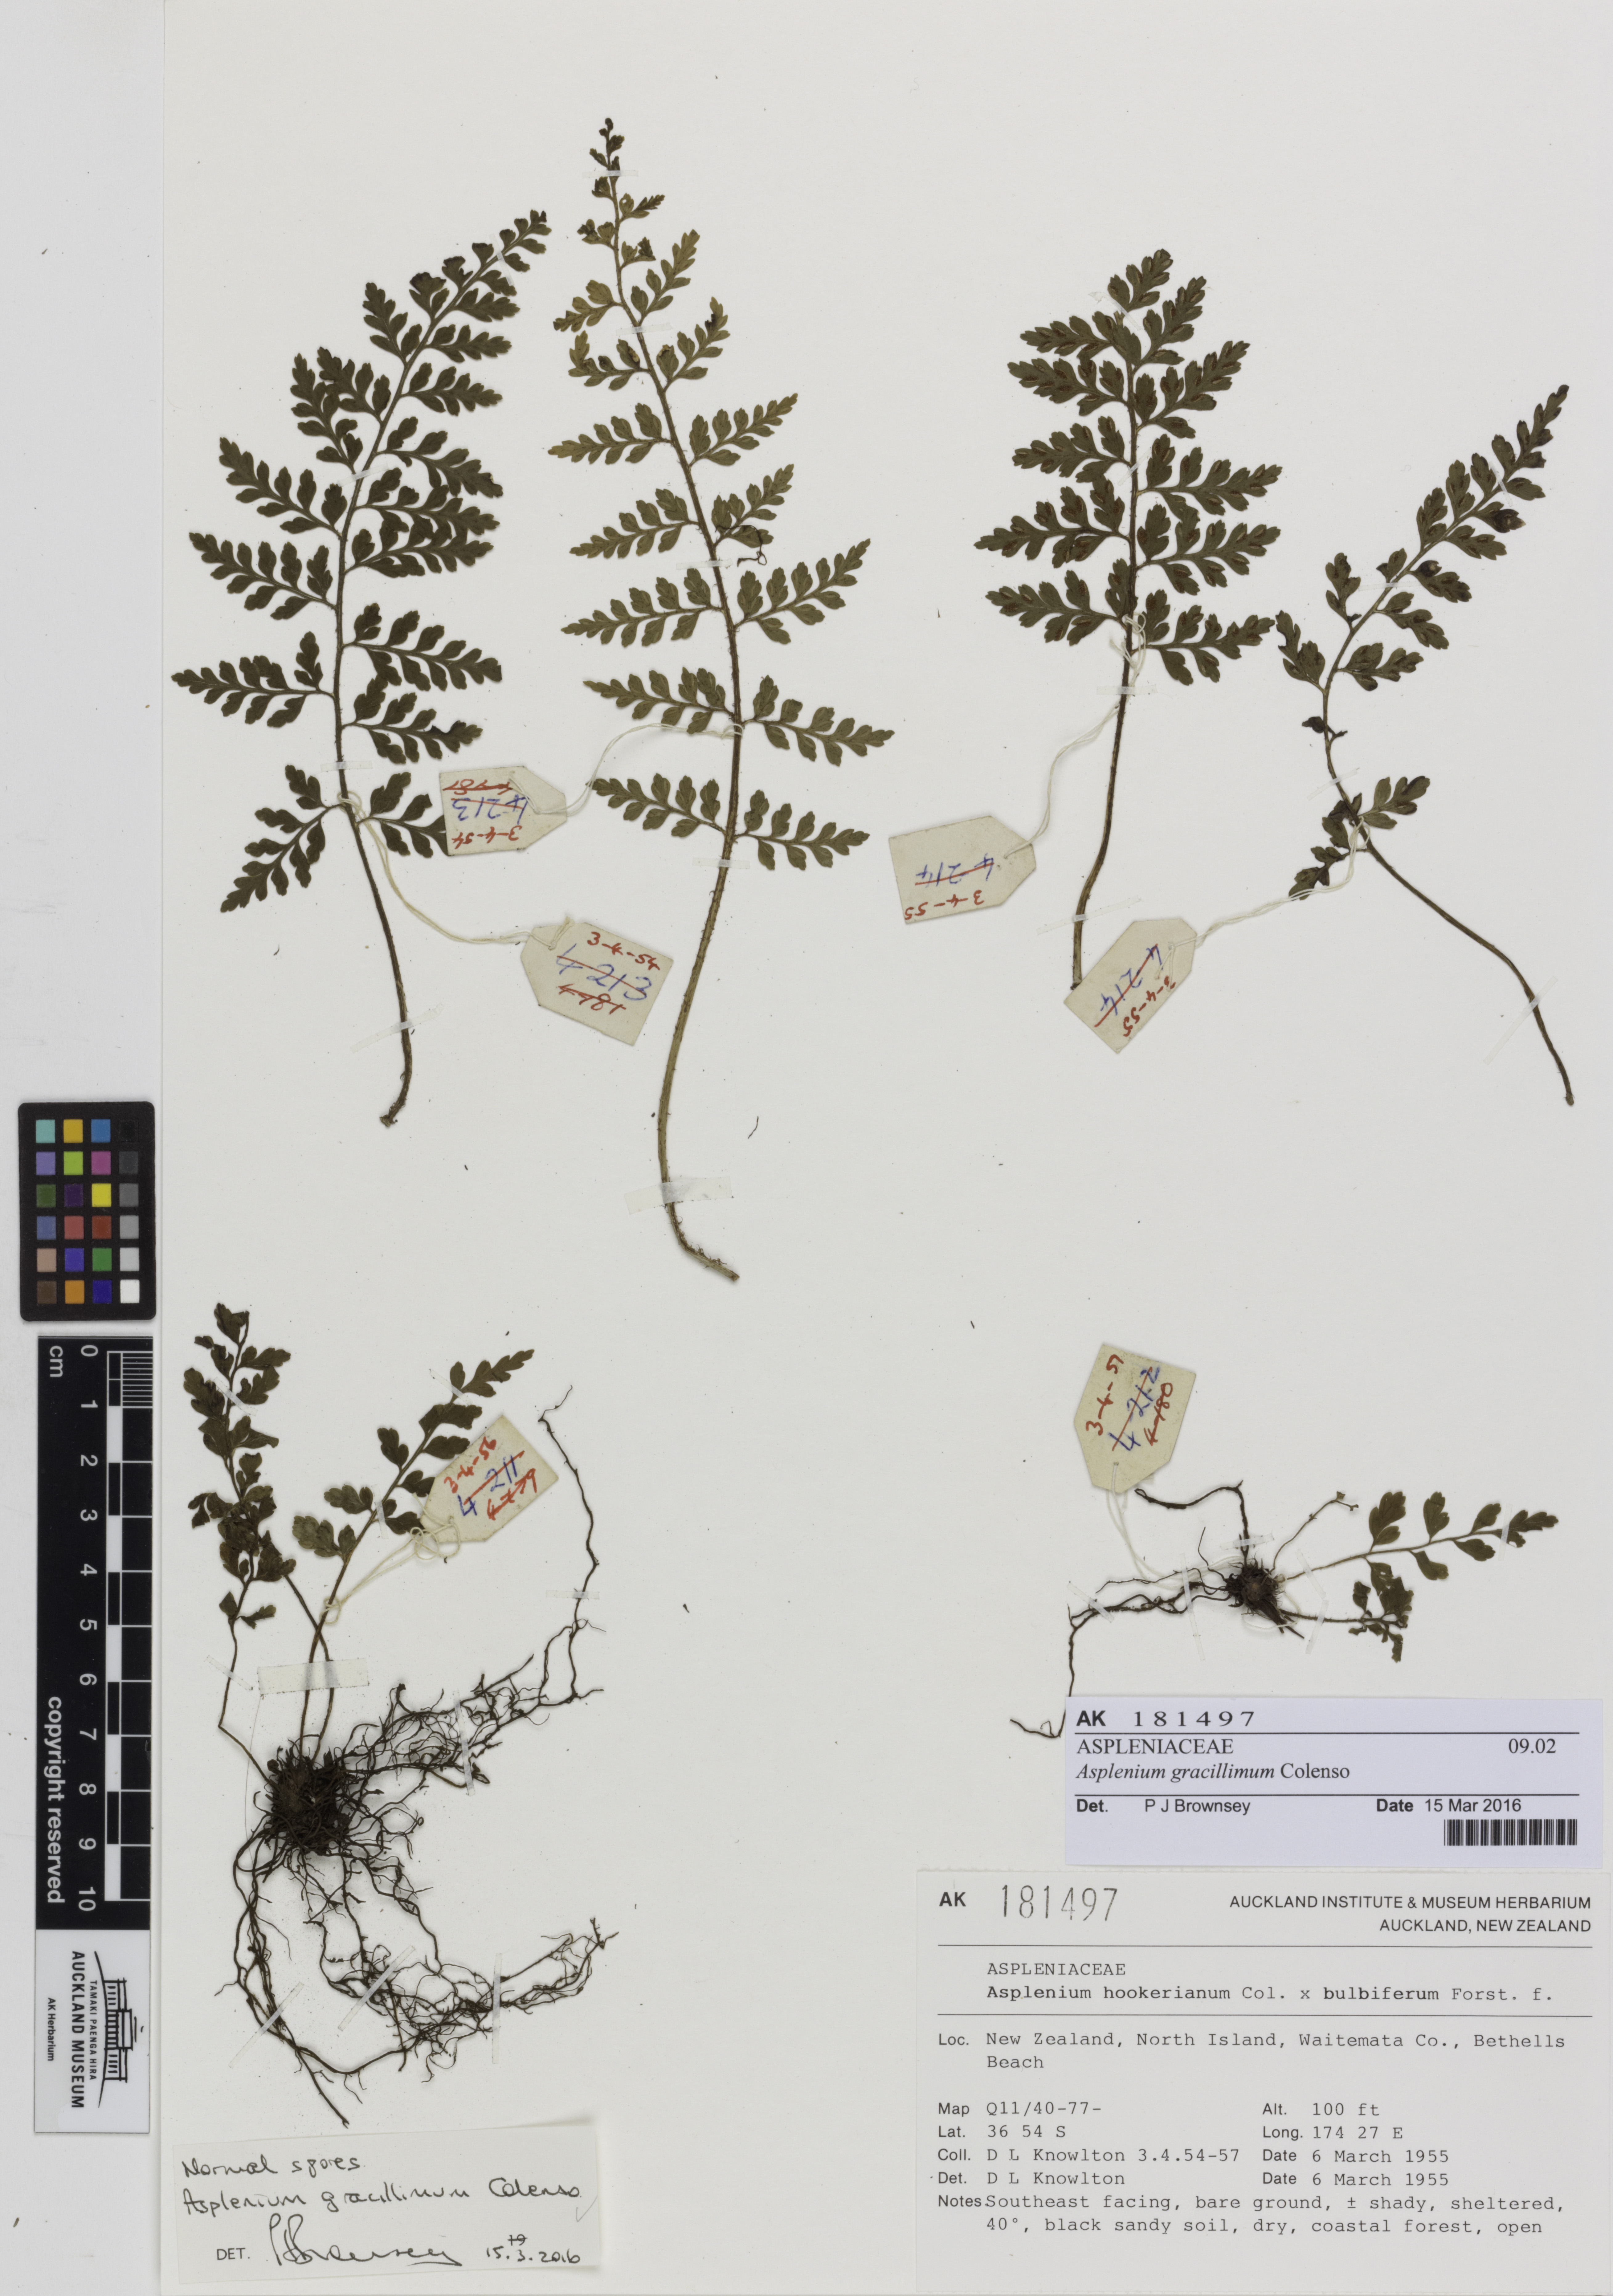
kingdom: Plantae
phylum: Tracheophyta
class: Polypodiopsida
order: Polypodiales
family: Aspleniaceae
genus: Asplenium
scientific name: Asplenium bulbiferum
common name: Mother fern
